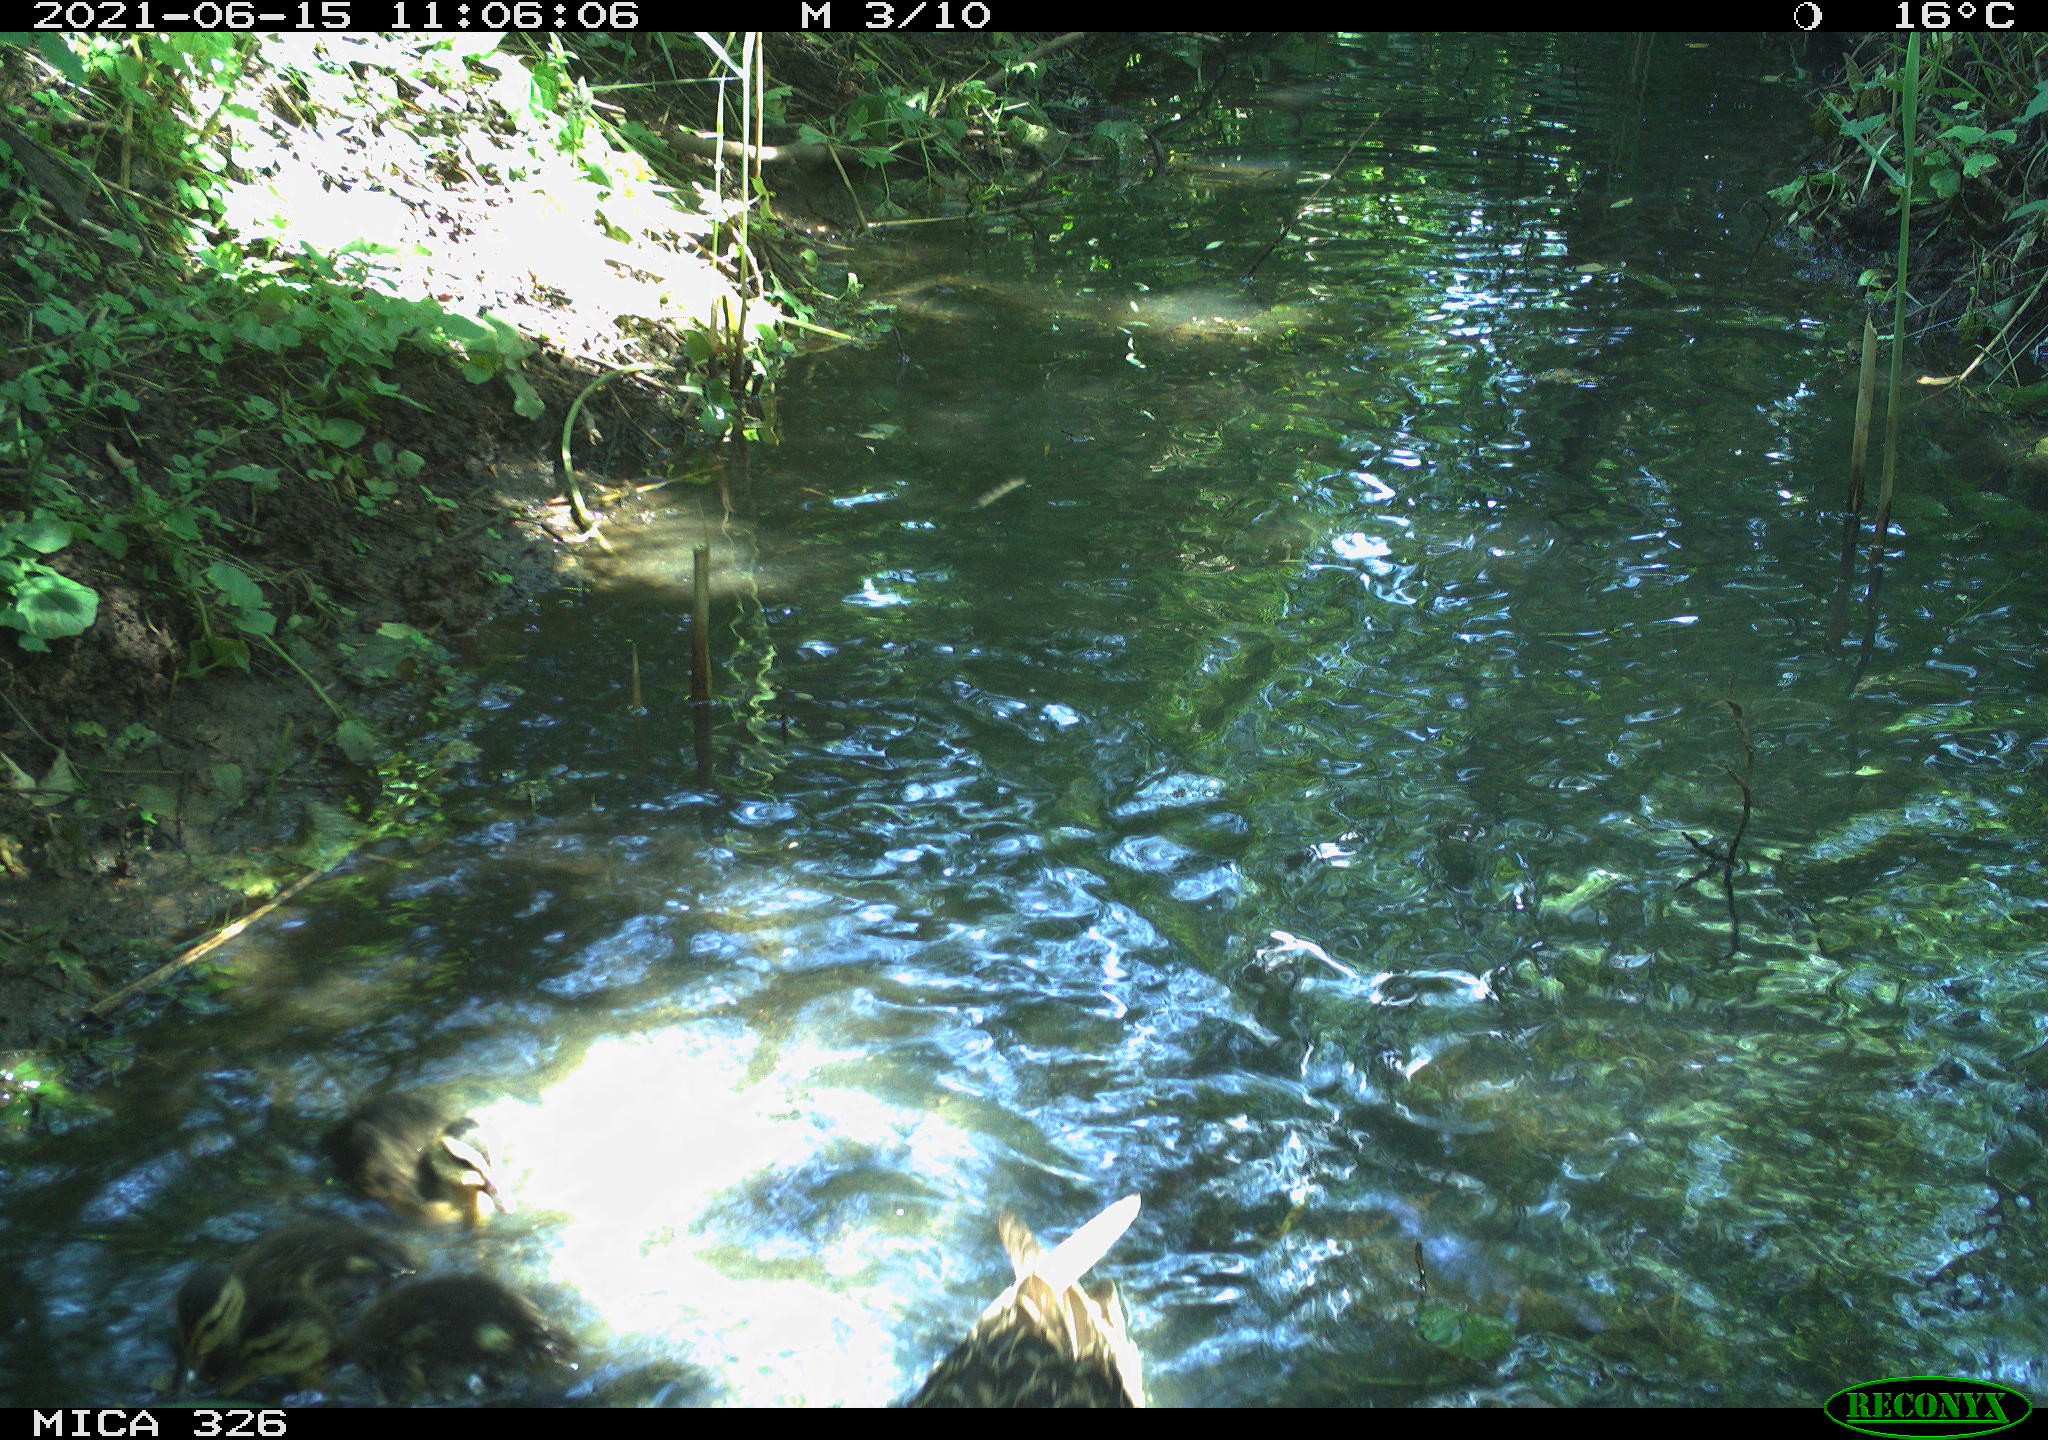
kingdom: Animalia
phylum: Chordata
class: Aves
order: Anseriformes
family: Anatidae
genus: Anas
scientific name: Anas platyrhynchos
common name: Mallard
